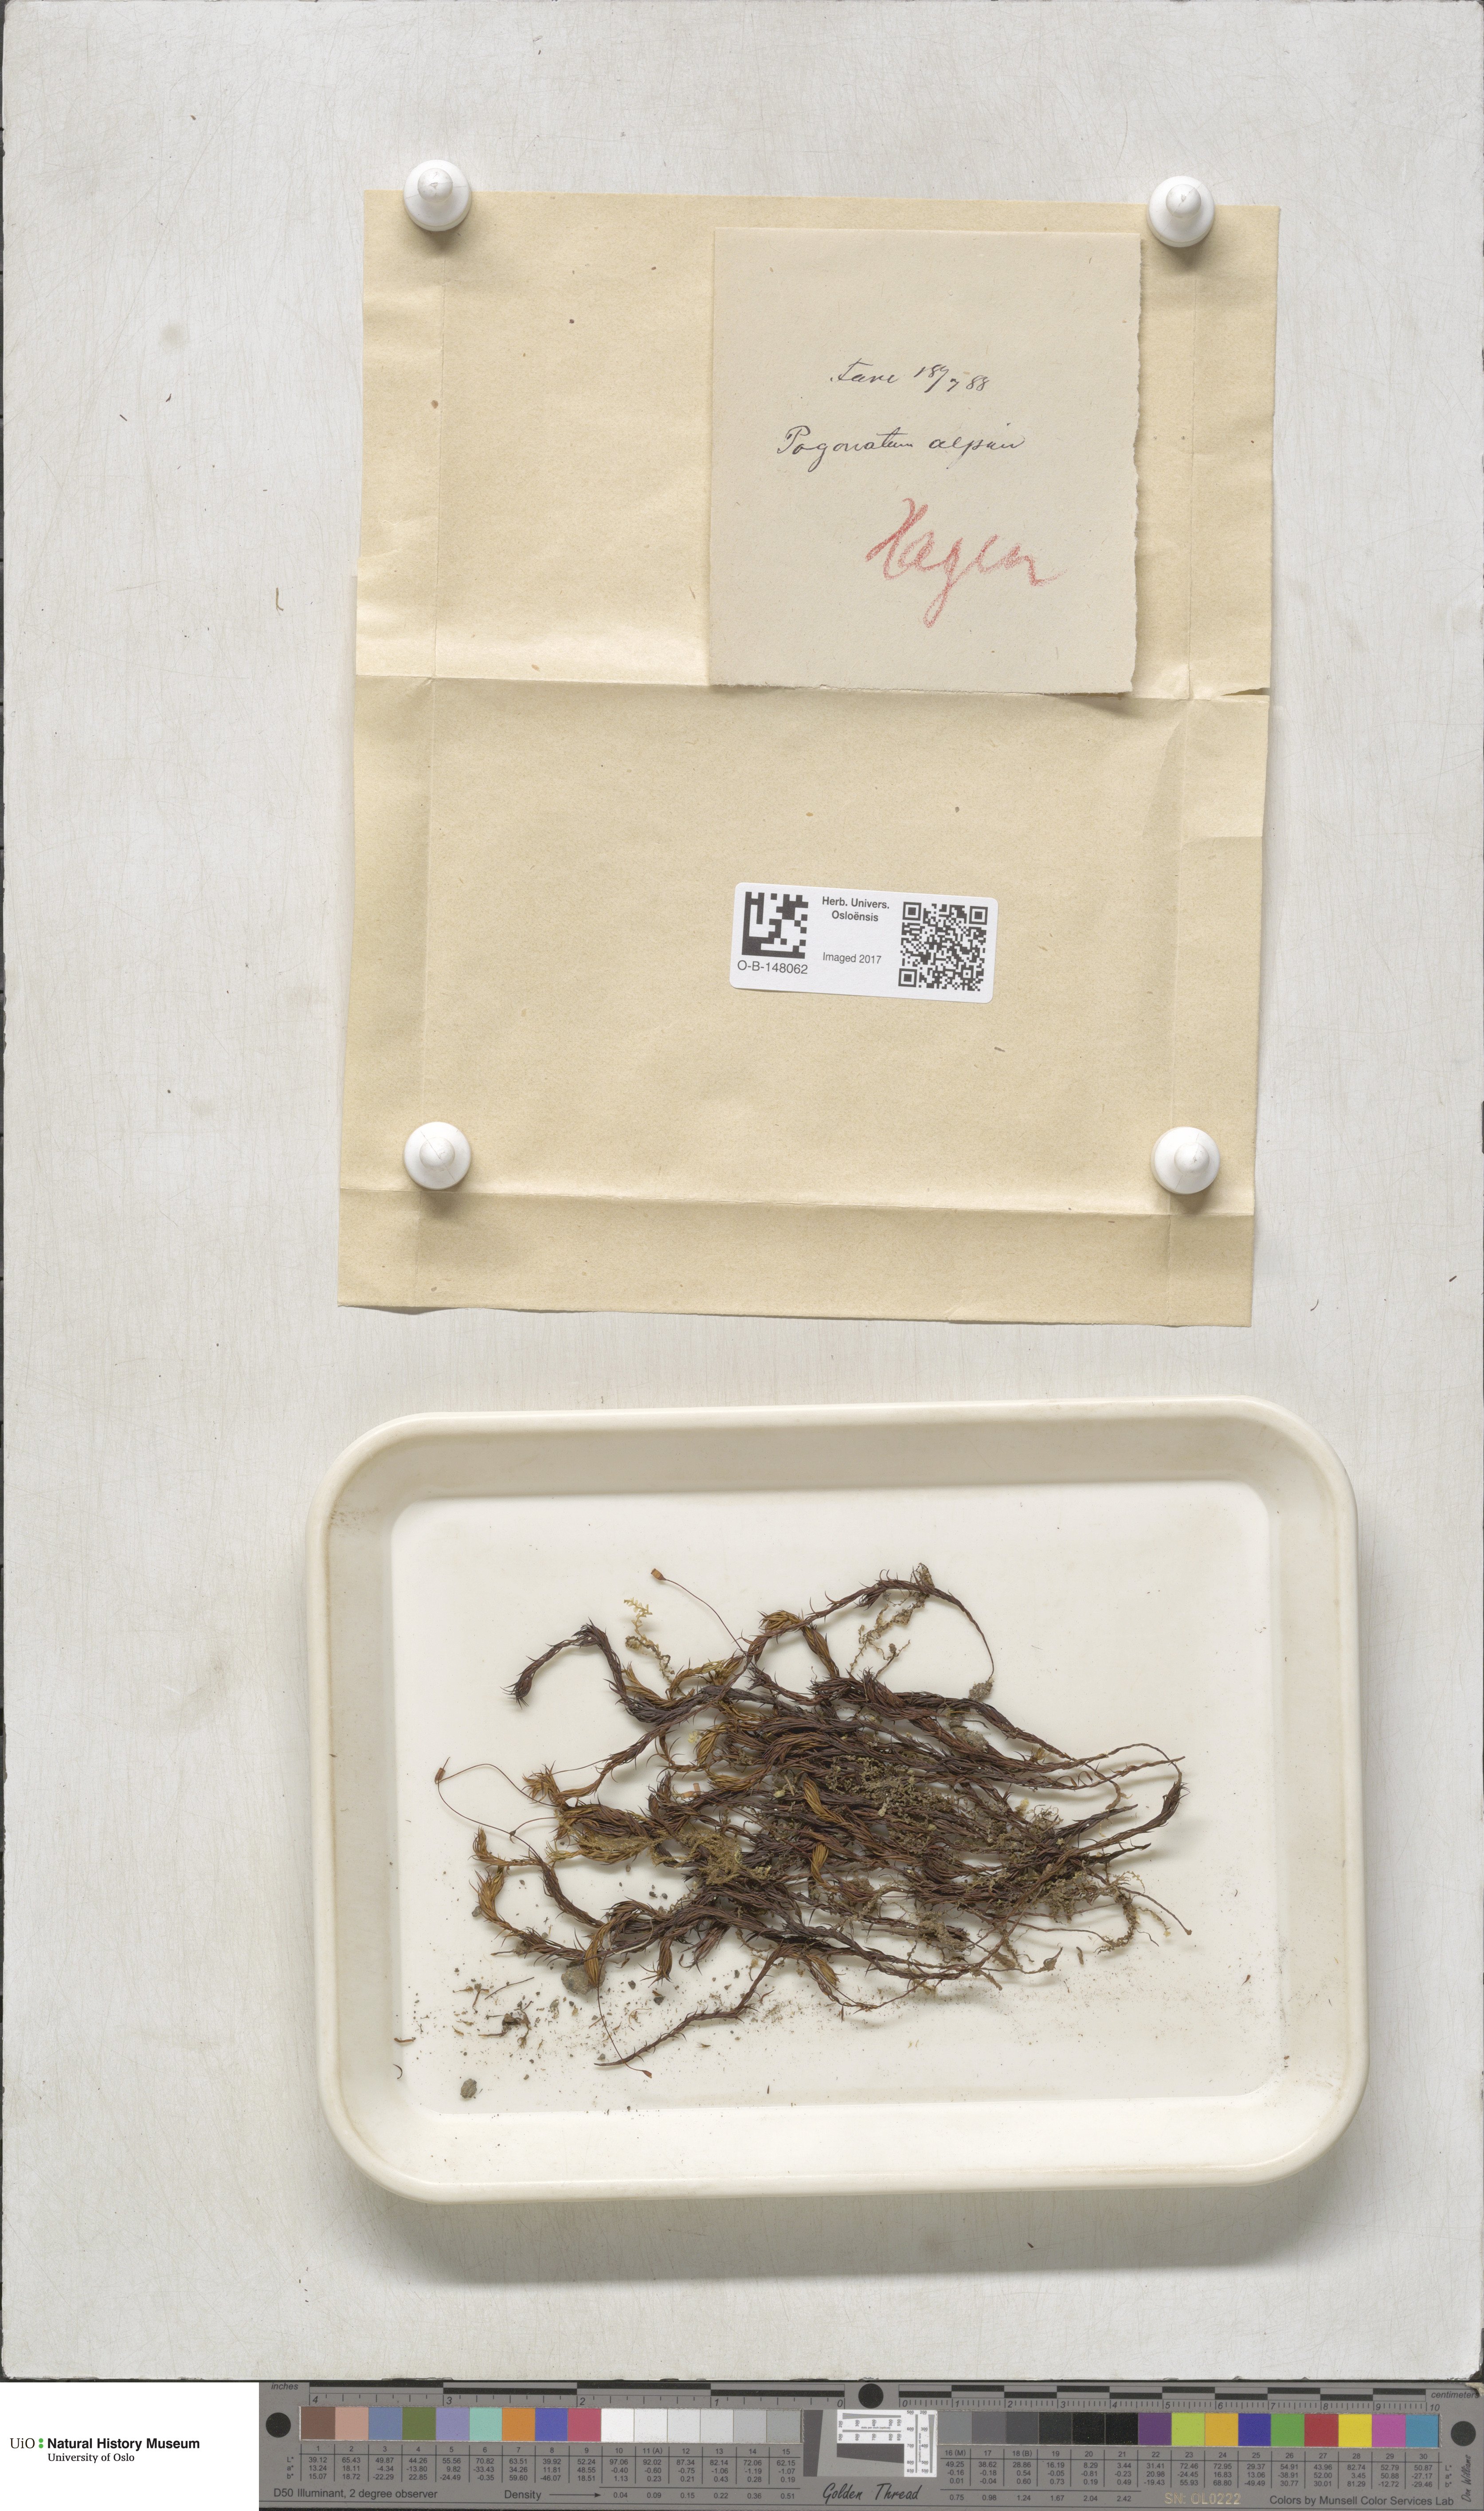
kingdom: Plantae
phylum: Bryophyta
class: Polytrichopsida
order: Polytrichales
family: Polytrichaceae
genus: Polytrichastrum
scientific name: Polytrichastrum alpinum
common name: Alpine haircap
